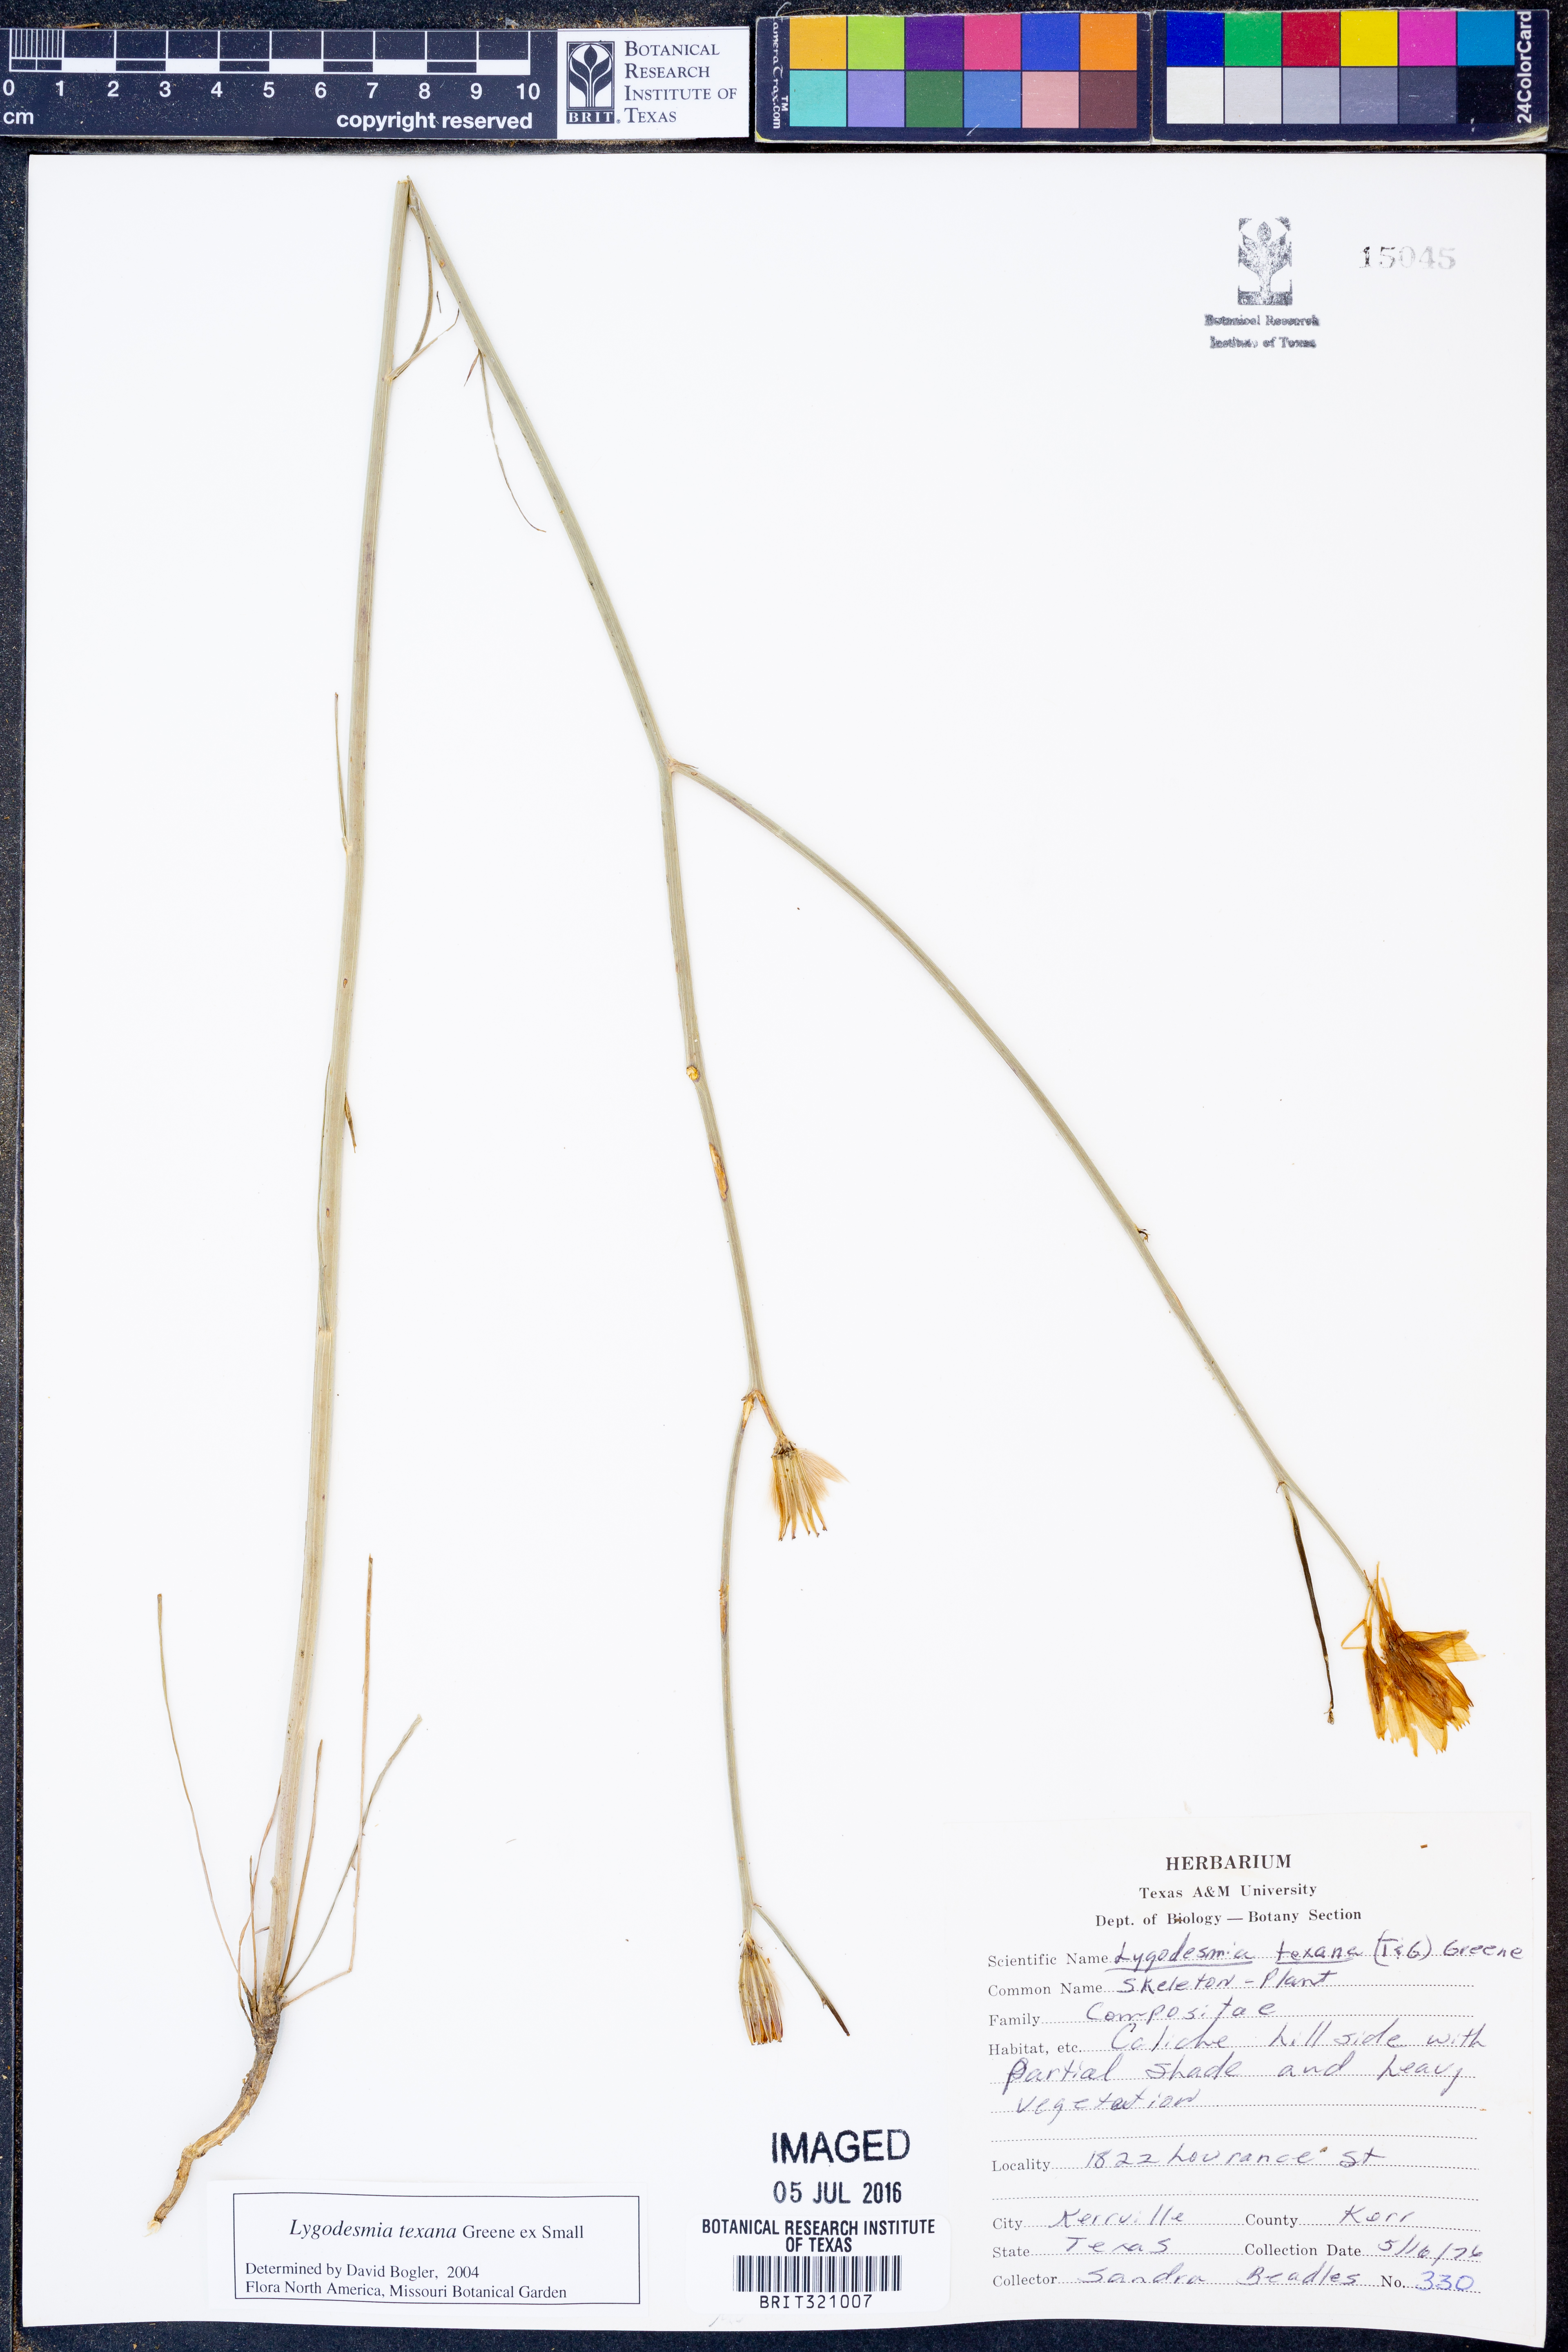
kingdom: Plantae
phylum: Tracheophyta
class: Magnoliopsida
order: Asterales
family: Asteraceae
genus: Lygodesmia
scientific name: Lygodesmia texana
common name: Texas skeleton-plant
